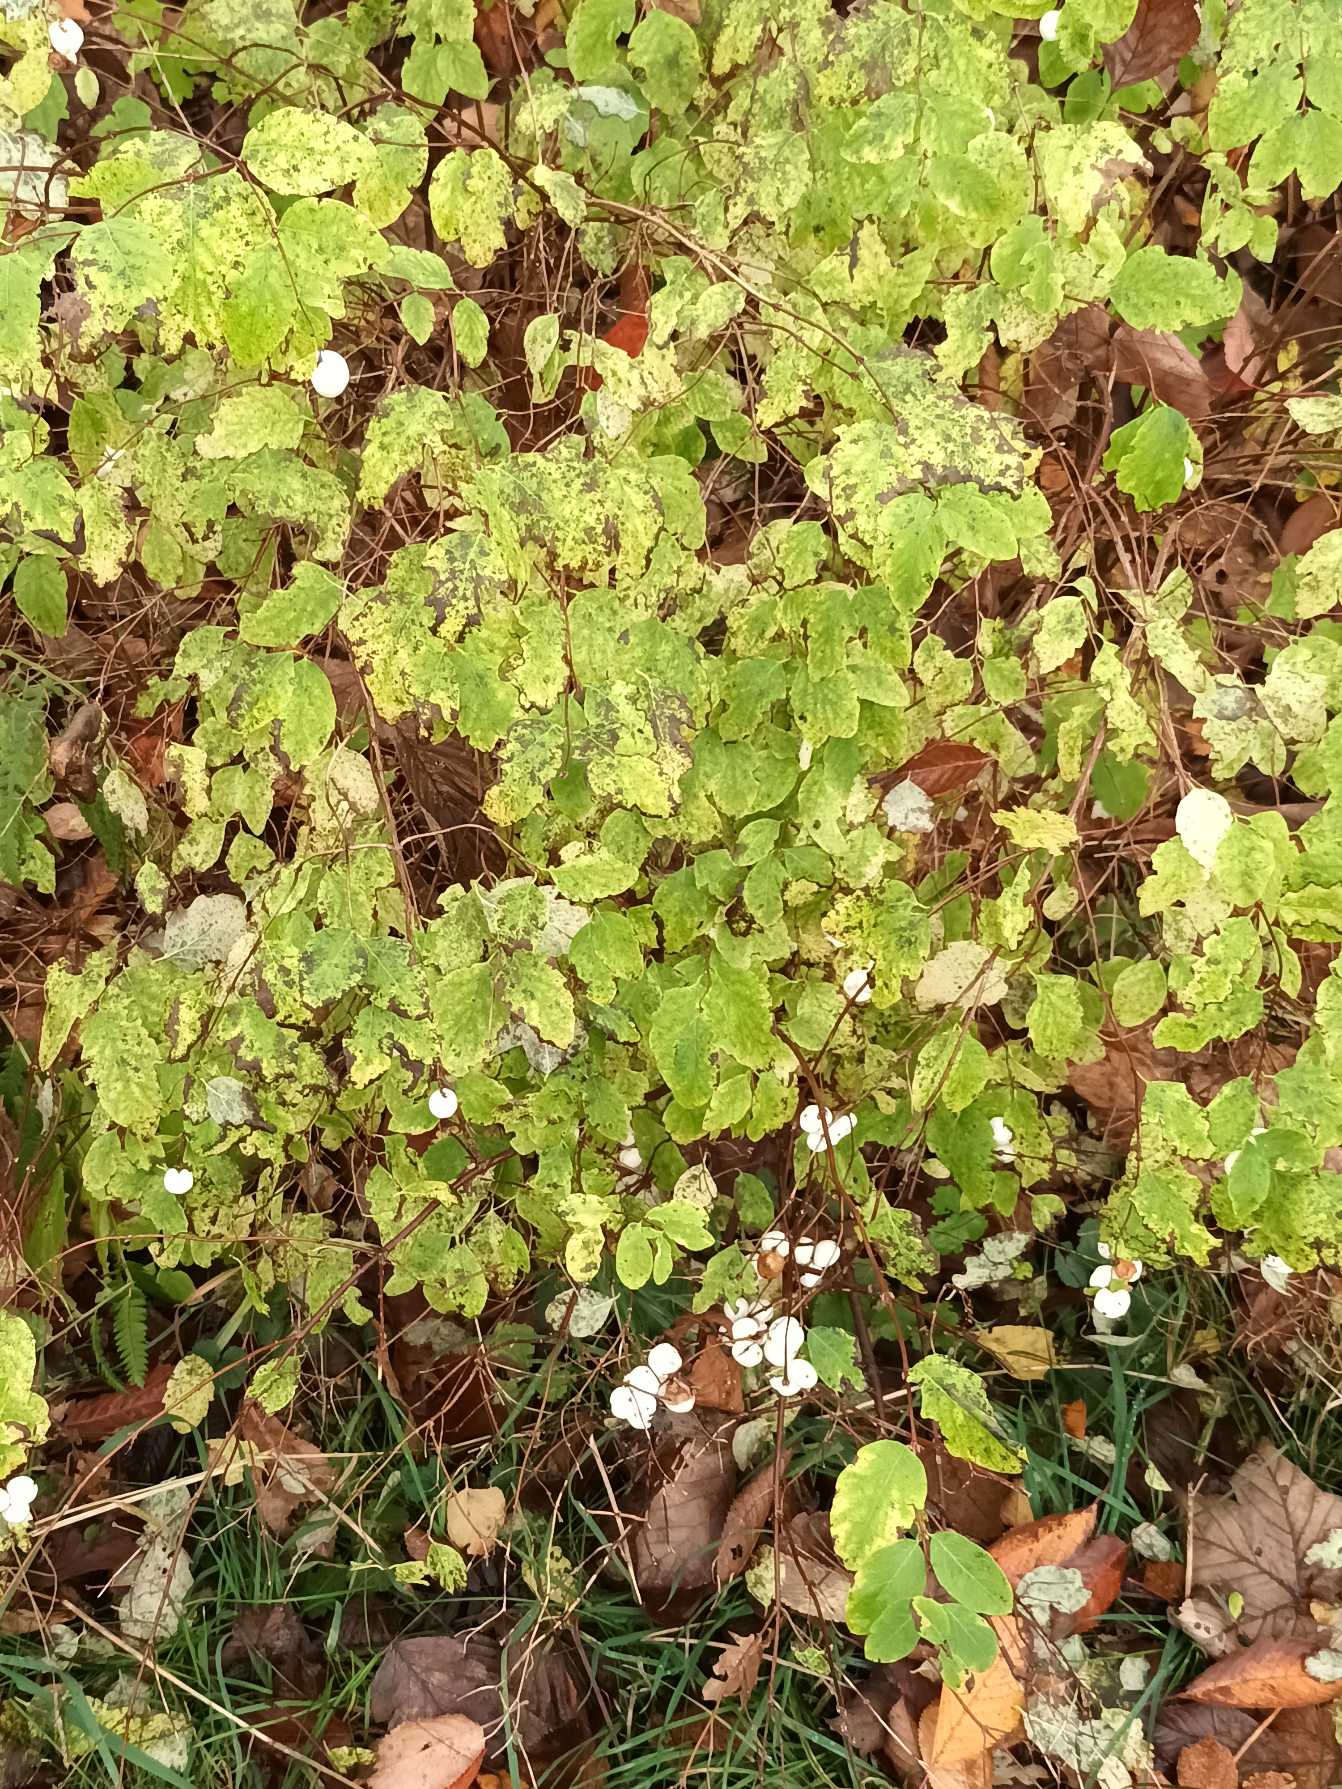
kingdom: Plantae
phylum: Tracheophyta
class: Magnoliopsida
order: Dipsacales
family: Caprifoliaceae
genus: Symphoricarpos
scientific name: Symphoricarpos albus
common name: Almindelig snebær
